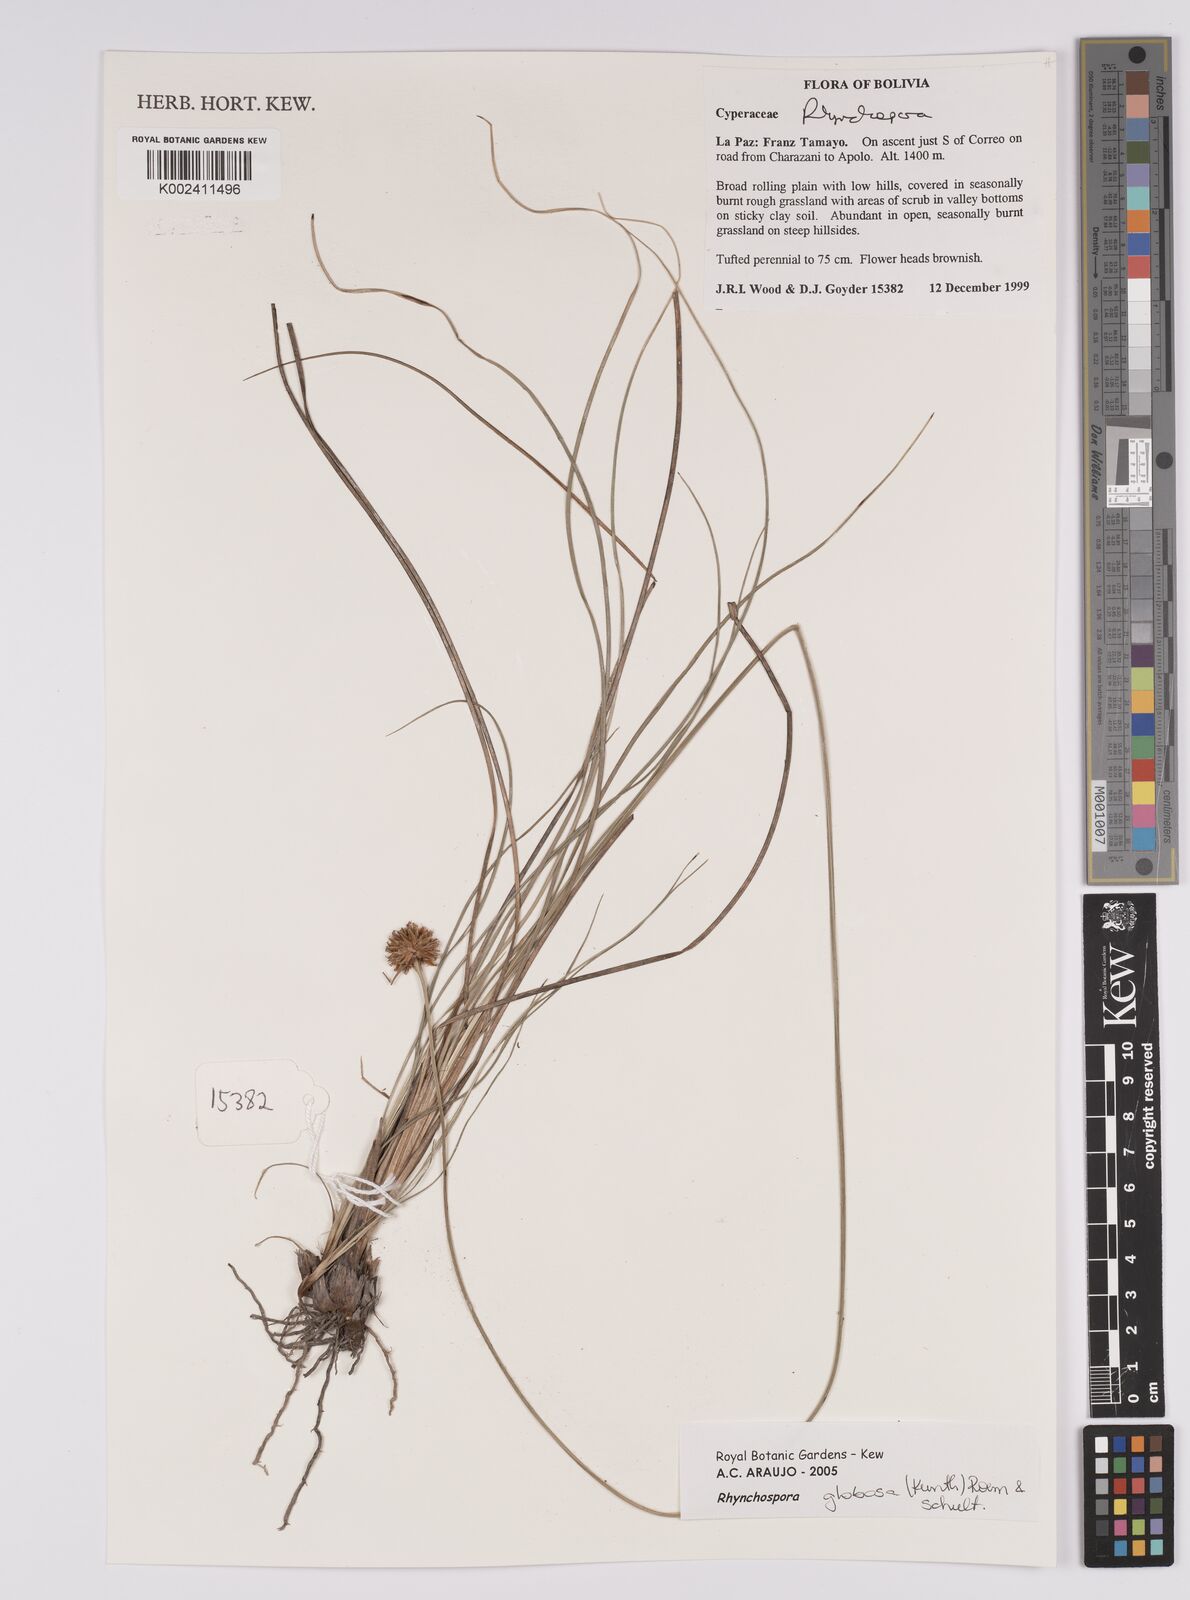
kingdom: Plantae
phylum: Tracheophyta
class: Liliopsida
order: Poales
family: Cyperaceae
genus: Rhynchospora
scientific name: Rhynchospora globosa
